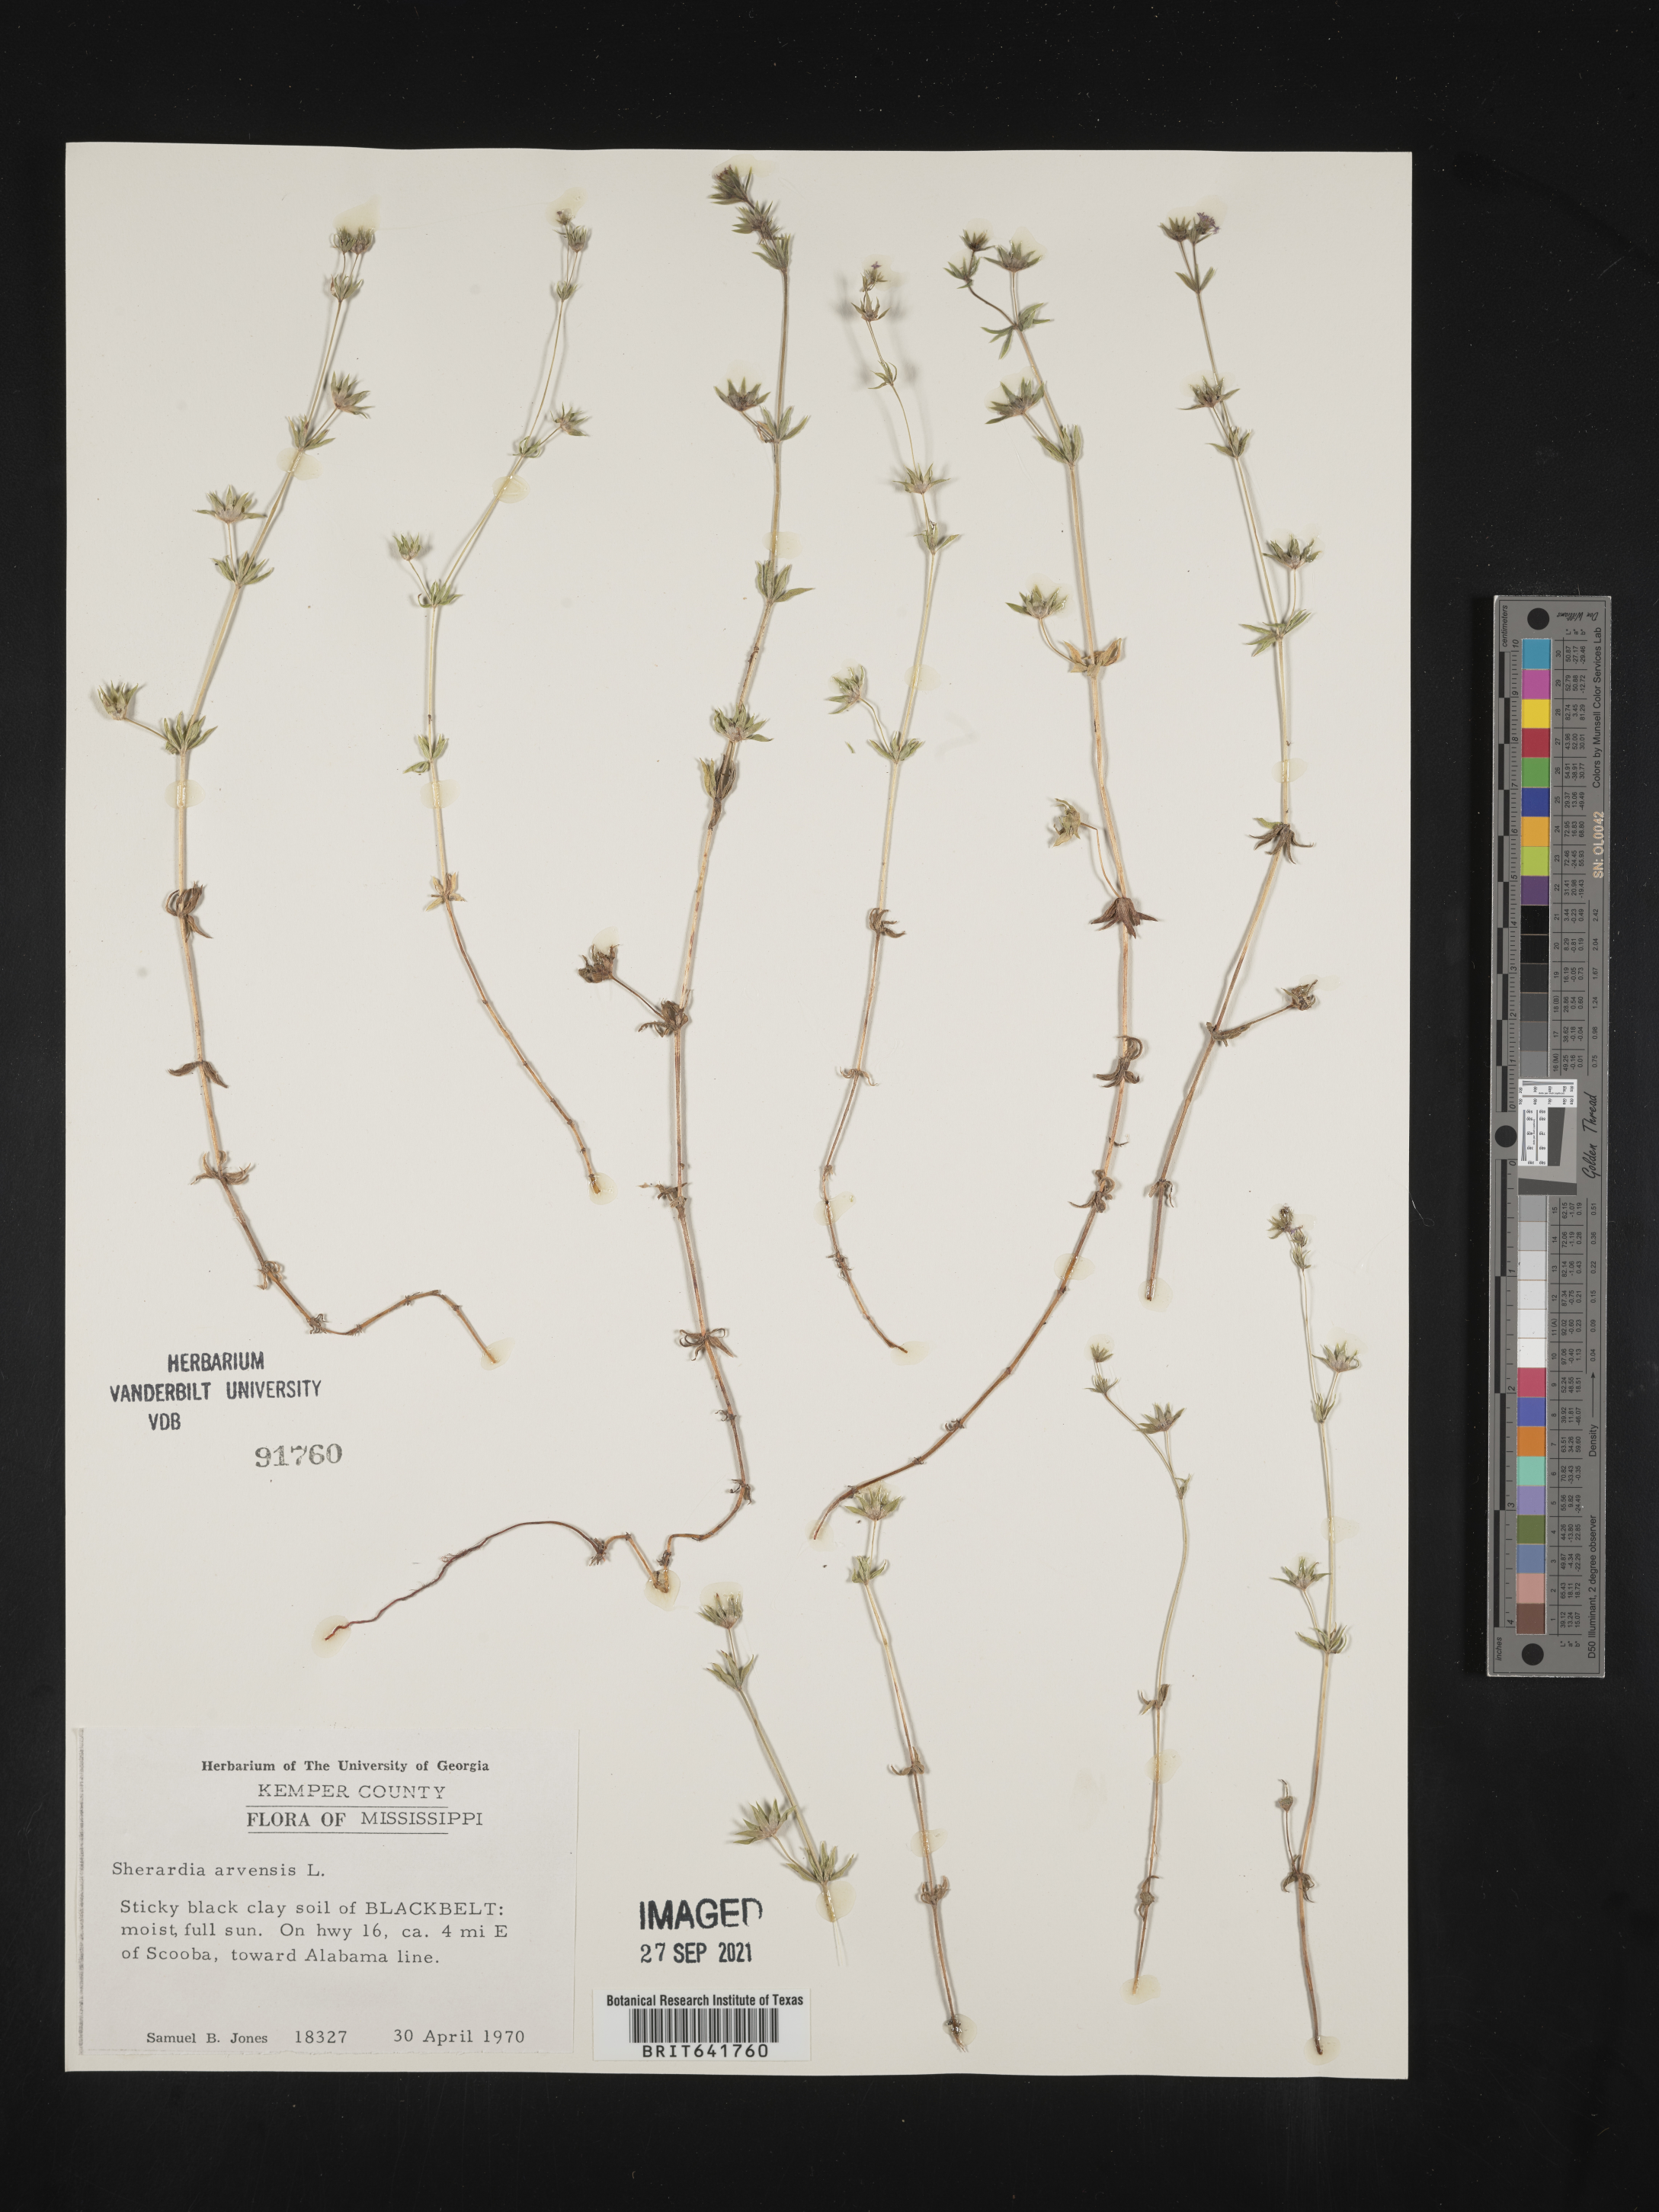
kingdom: Plantae
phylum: Tracheophyta
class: Magnoliopsida
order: Gentianales
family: Rubiaceae
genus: Sherardia
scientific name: Sherardia arvensis
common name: Field madder
